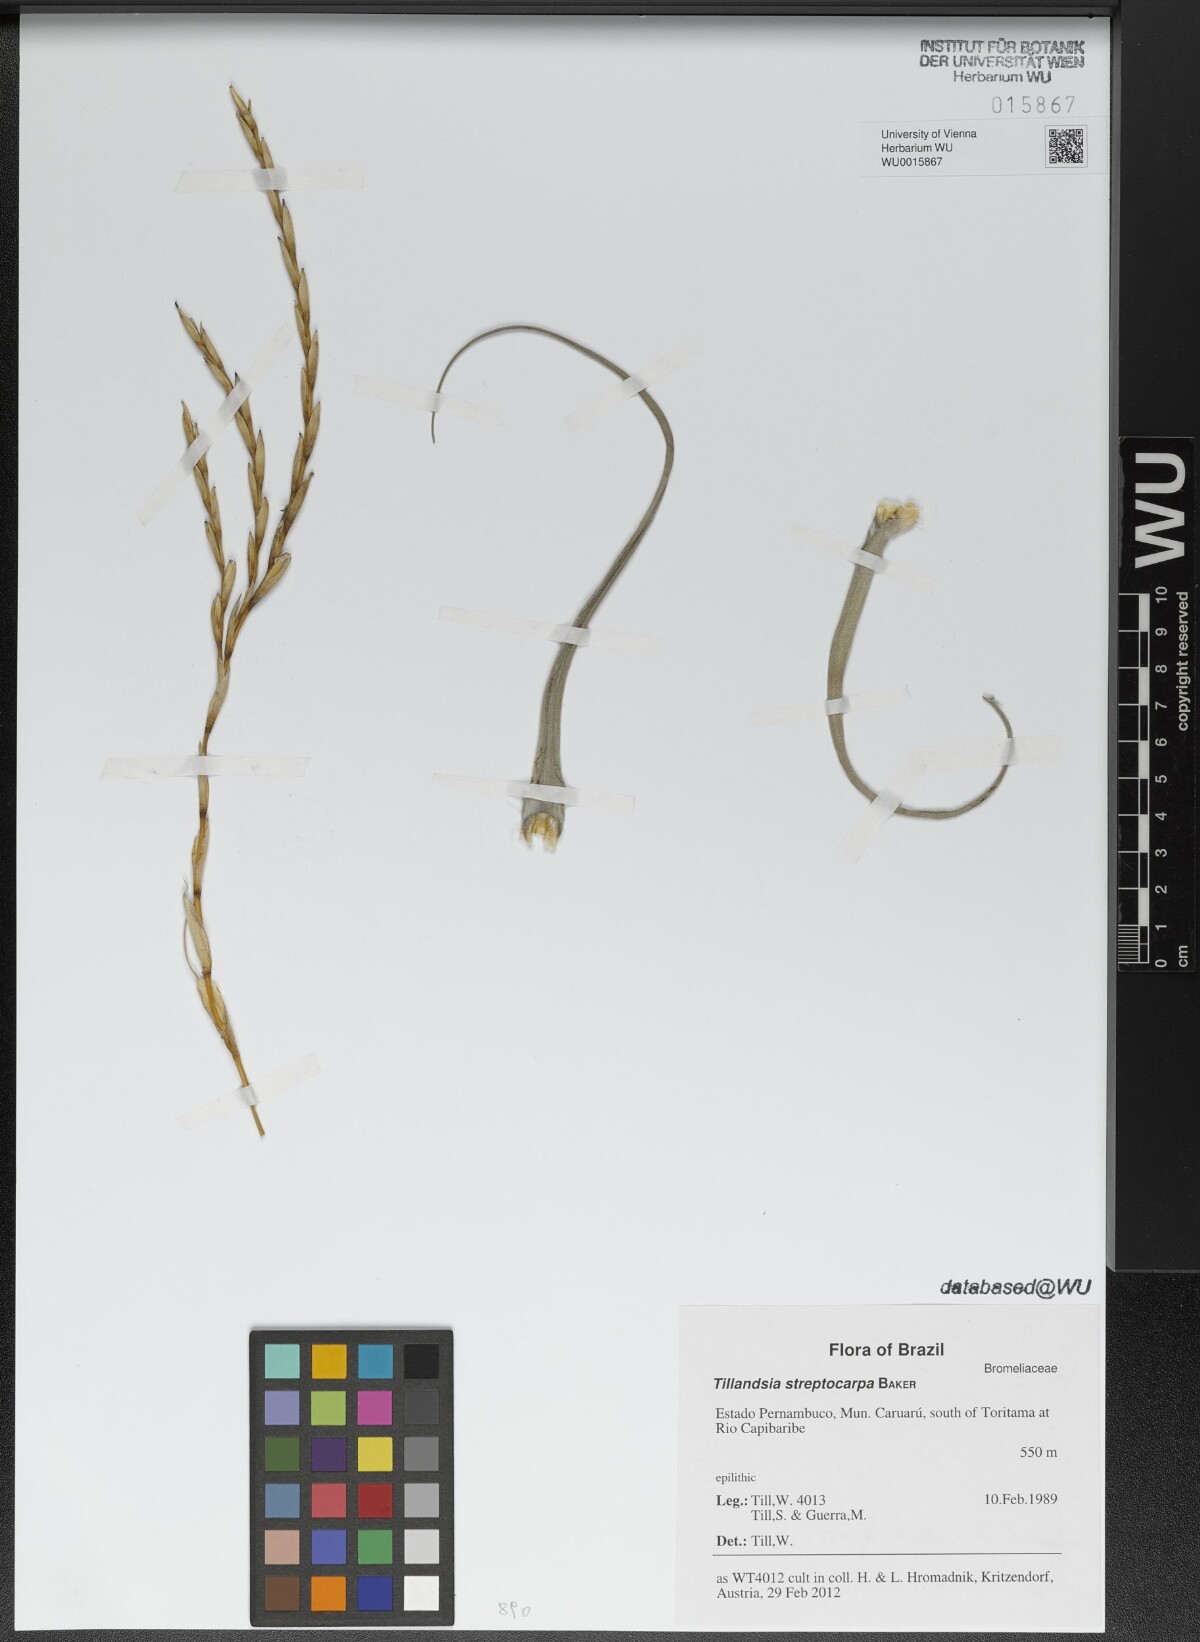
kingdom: Plantae
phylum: Tracheophyta
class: Liliopsida
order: Poales
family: Bromeliaceae
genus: Tillandsia
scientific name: Tillandsia streptocarpa
